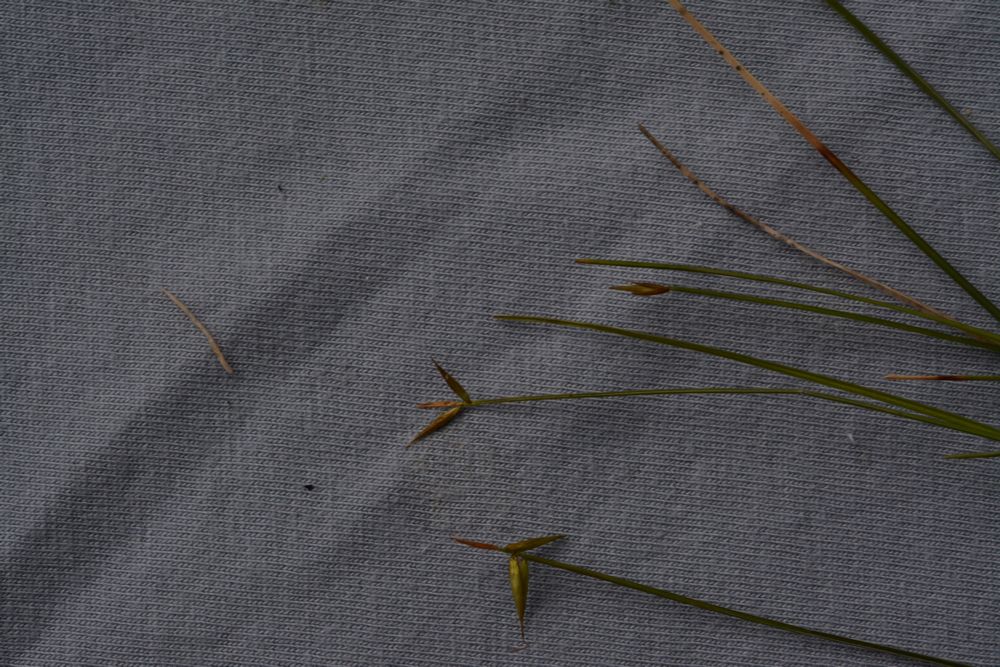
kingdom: Plantae
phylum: Tracheophyta
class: Liliopsida
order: Poales
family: Cyperaceae
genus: Carex
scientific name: Carex pauciflora
